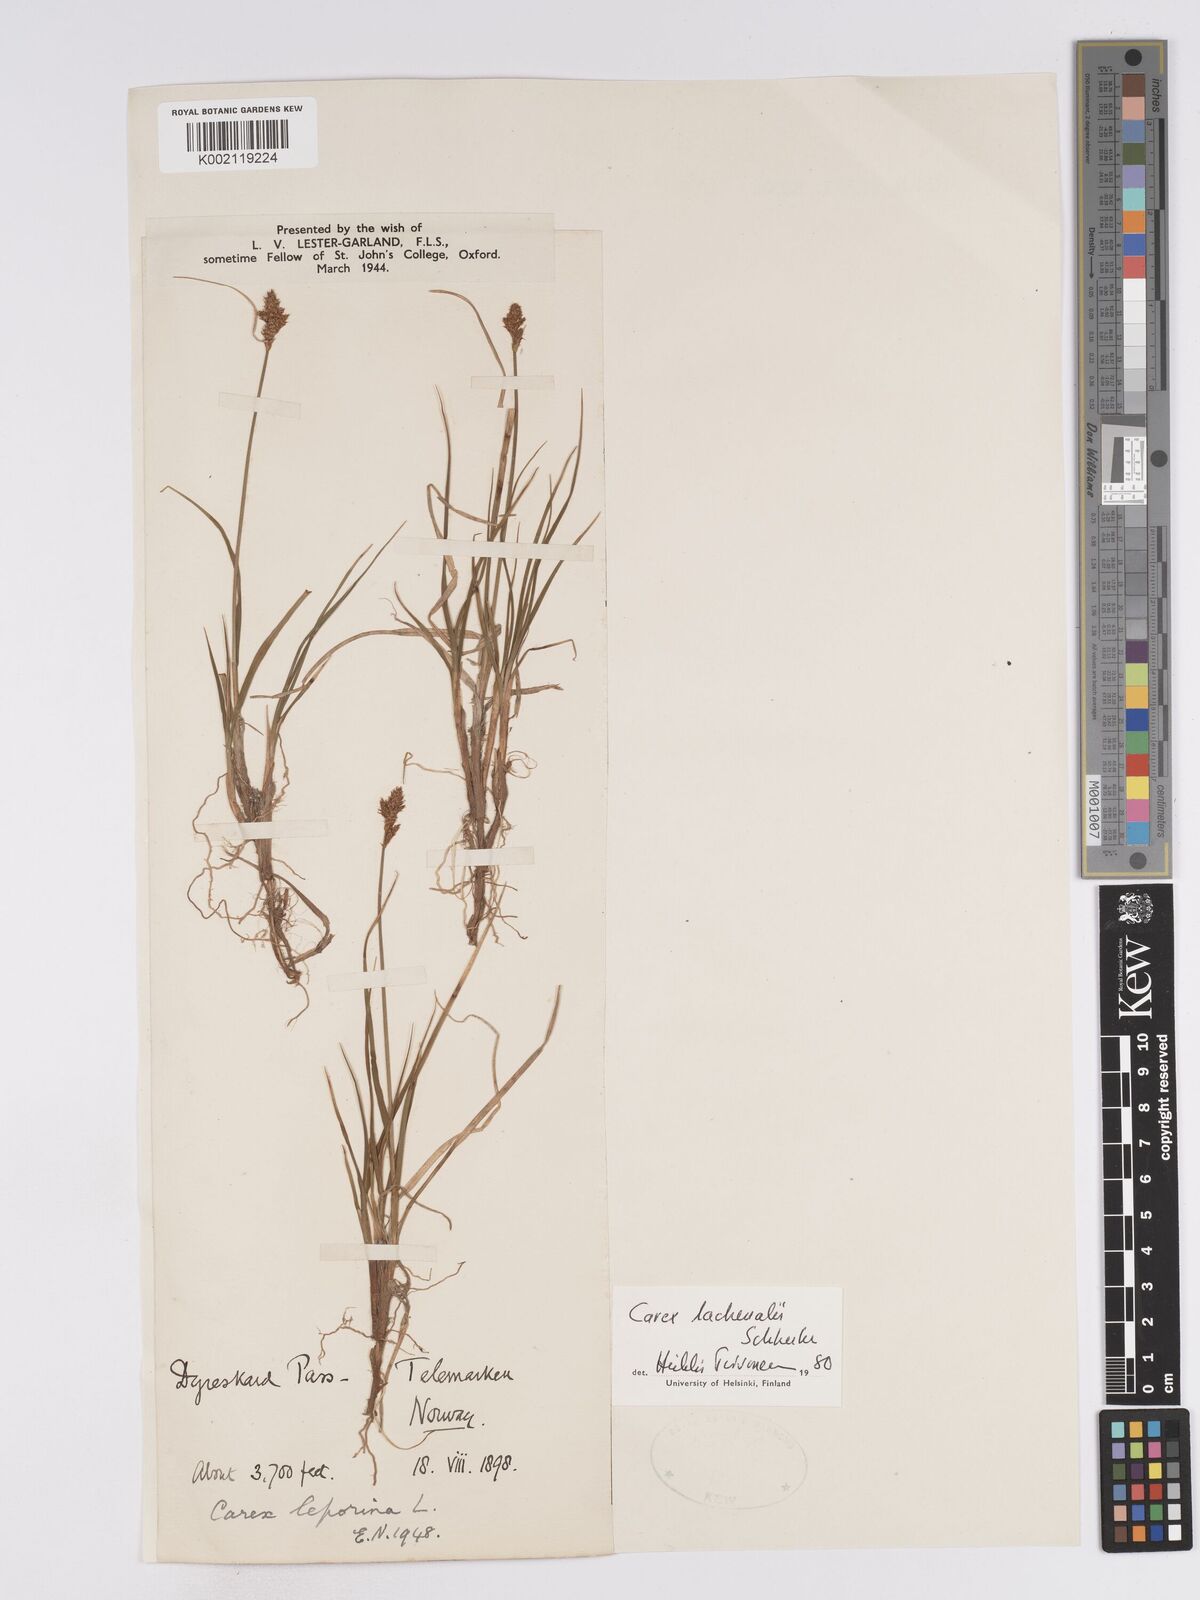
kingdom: Plantae
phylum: Tracheophyta
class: Liliopsida
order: Poales
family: Cyperaceae
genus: Carex
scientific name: Carex lachenalii
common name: Hare's-foot sedge
